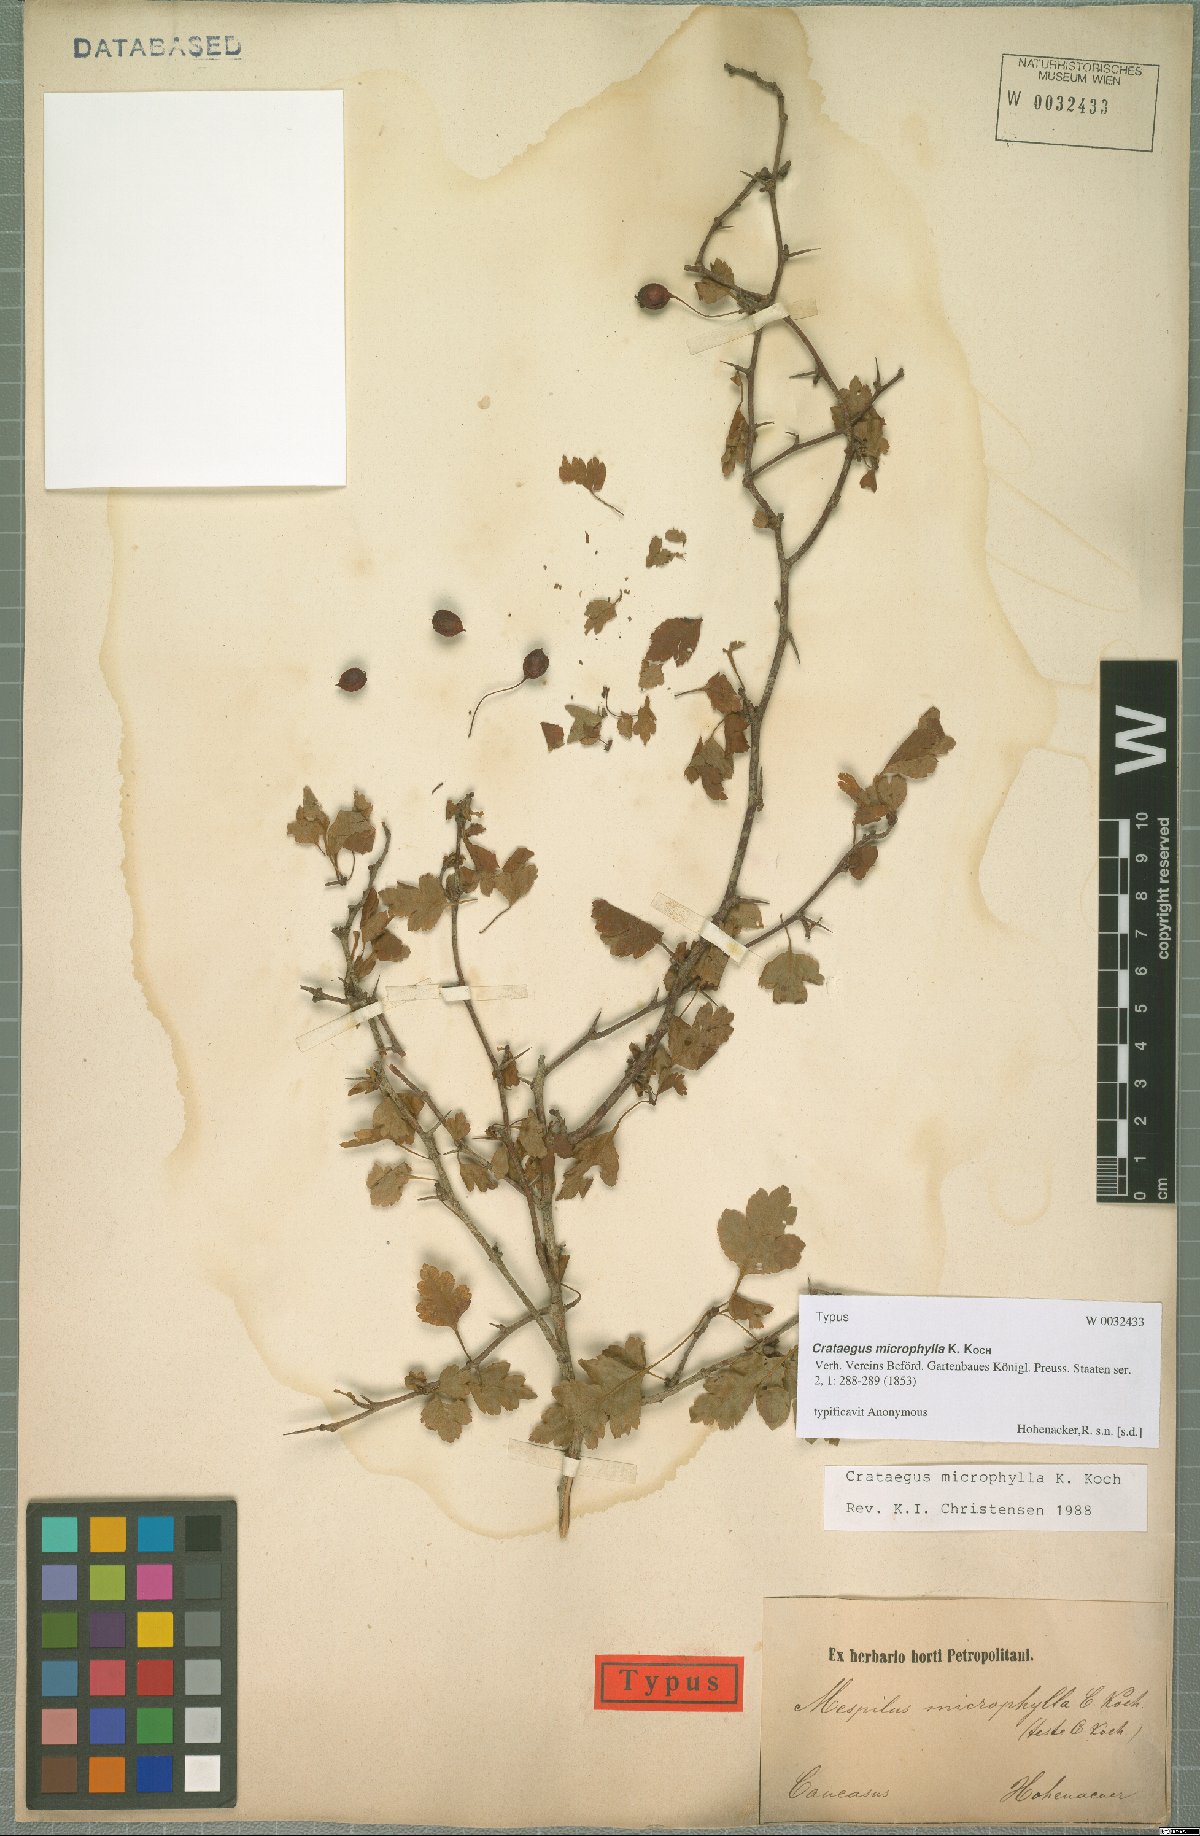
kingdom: Plantae
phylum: Tracheophyta
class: Magnoliopsida
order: Rosales
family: Rosaceae
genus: Crataegus
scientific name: Crataegus microphylla
